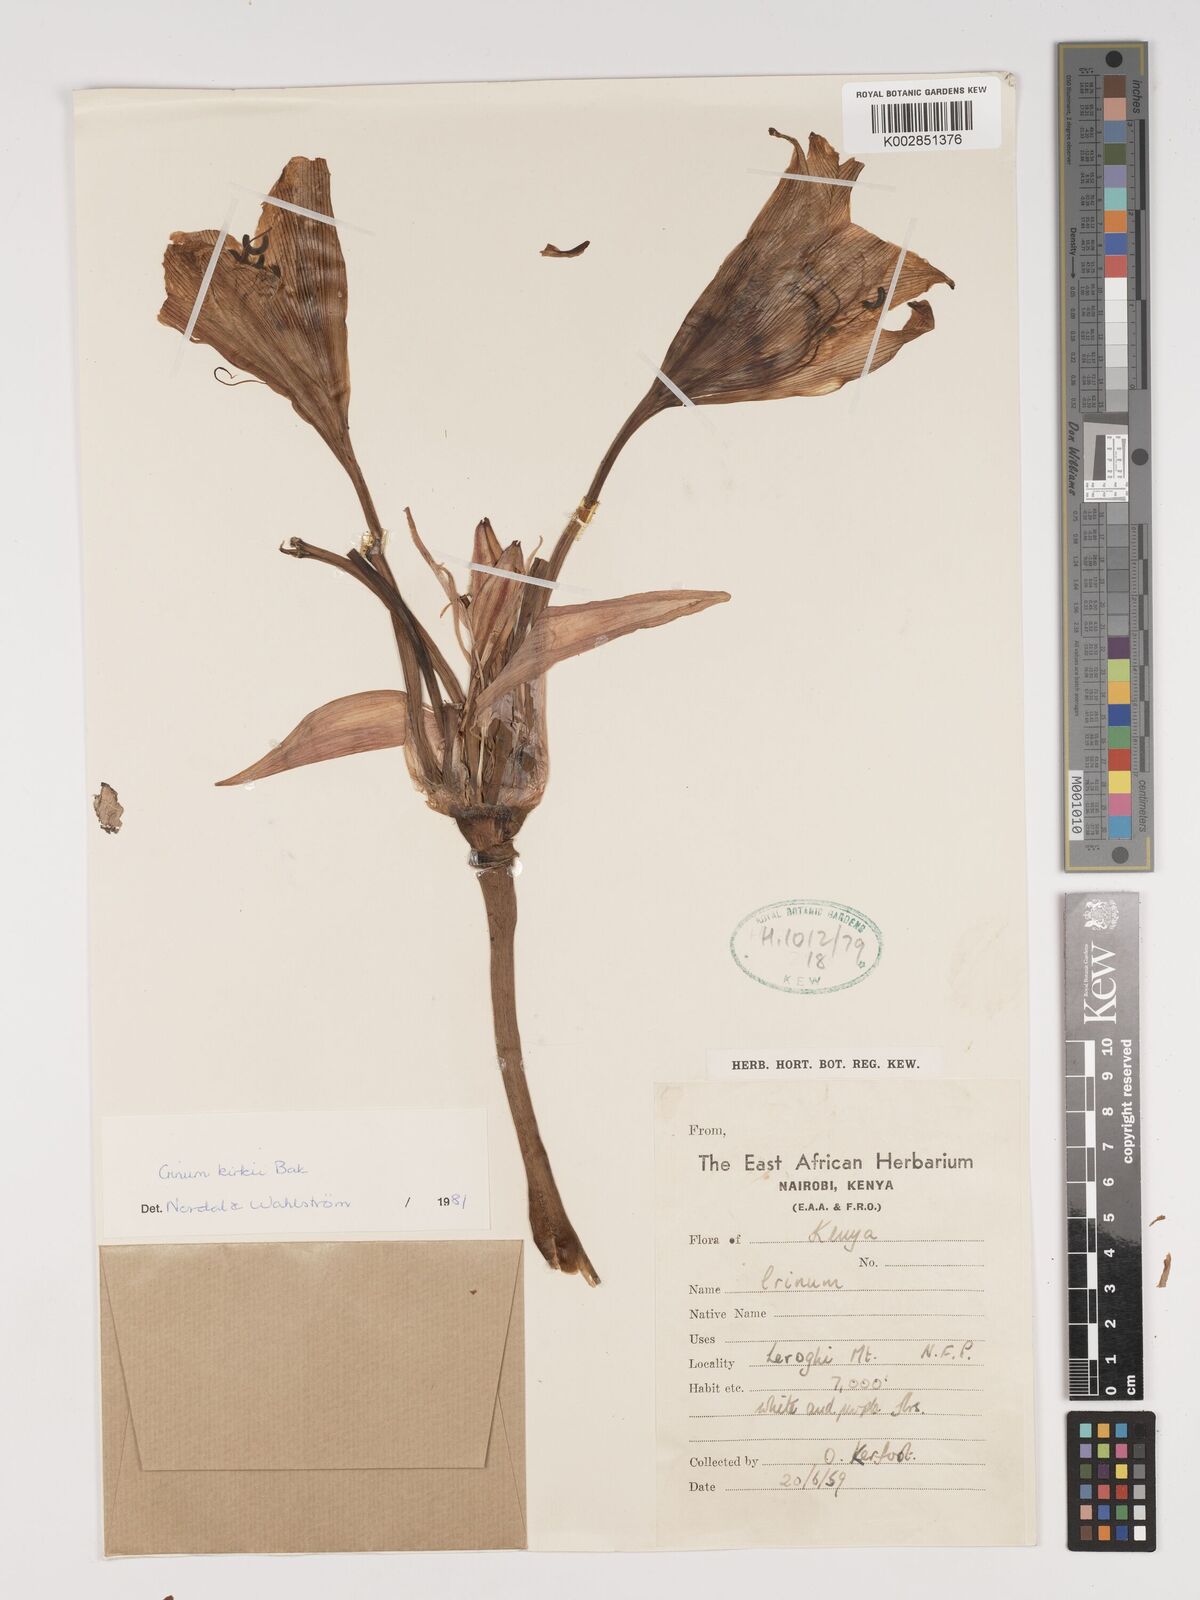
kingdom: Plantae
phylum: Tracheophyta
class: Liliopsida
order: Asparagales
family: Amaryllidaceae
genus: Crinum
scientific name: Crinum kirkii
